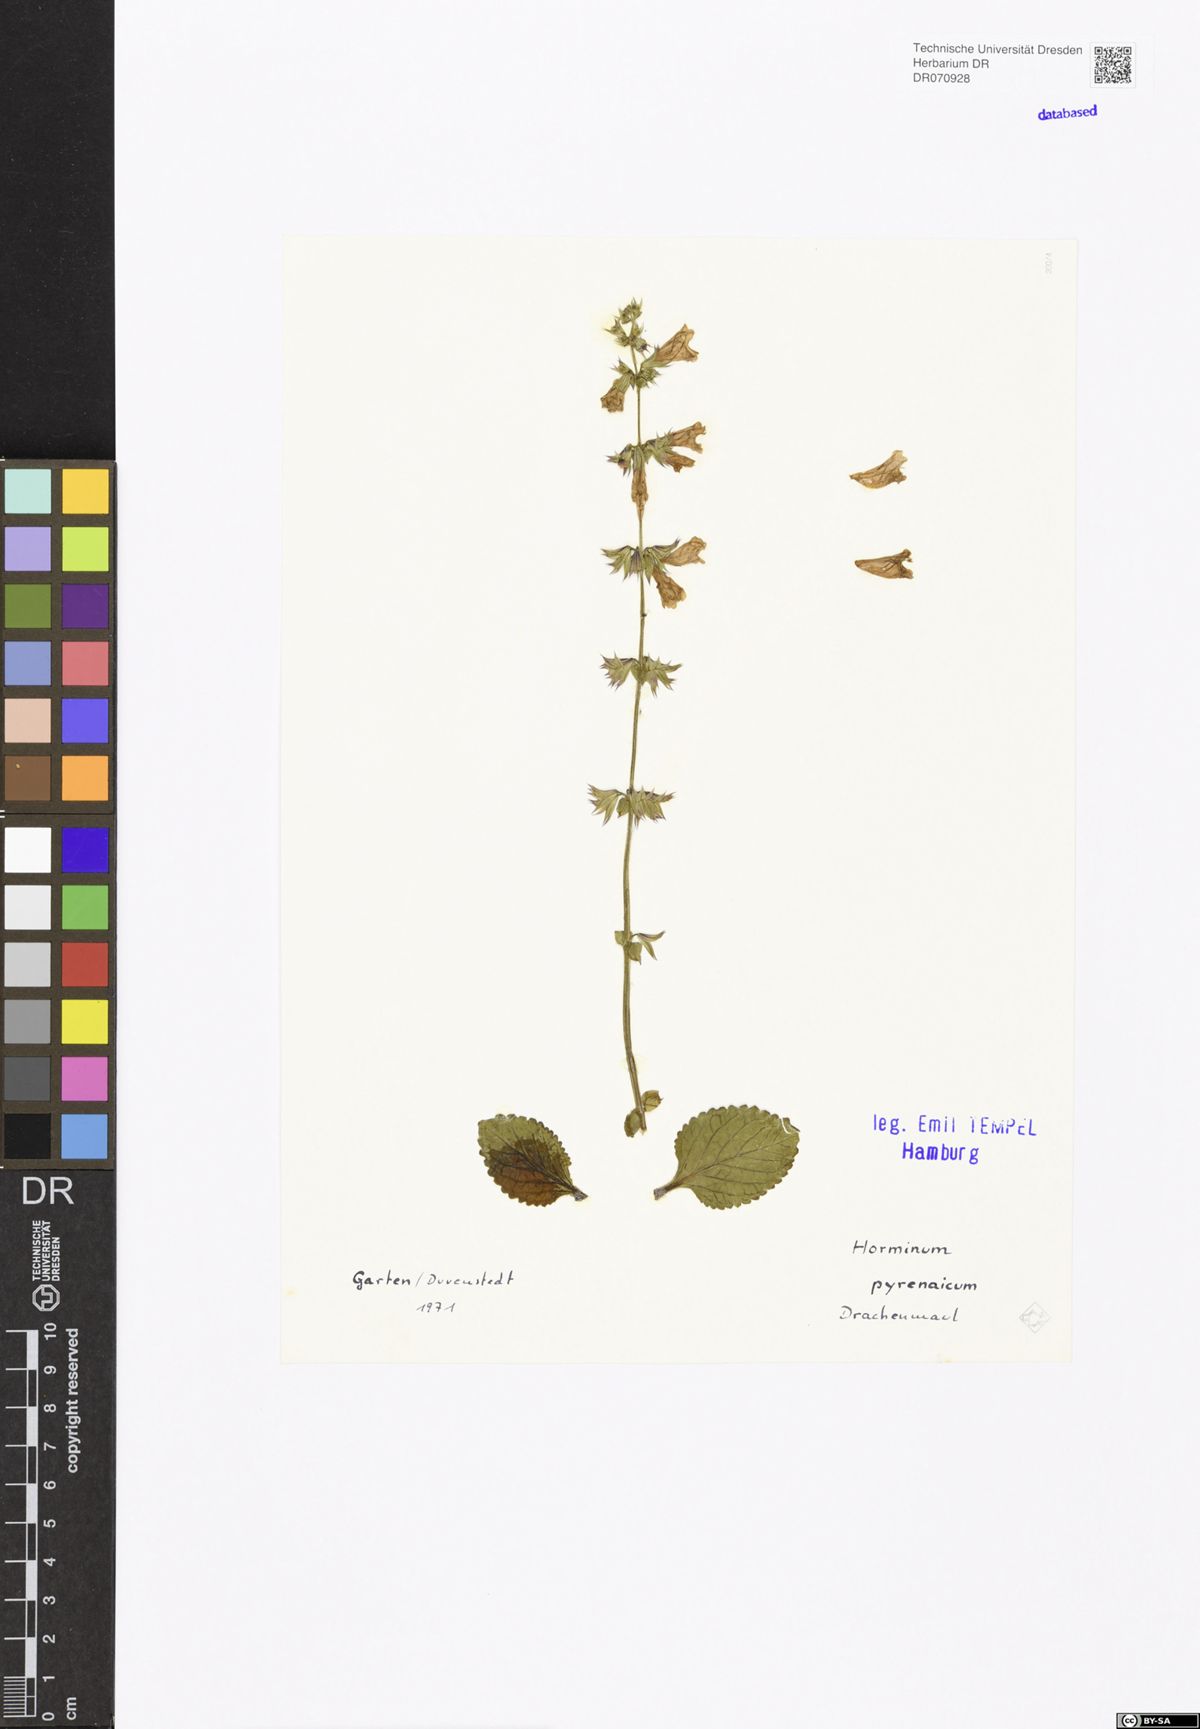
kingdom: Plantae
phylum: Tracheophyta
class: Magnoliopsida
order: Lamiales
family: Lamiaceae
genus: Horminum
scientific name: Horminum pyrenaicum
